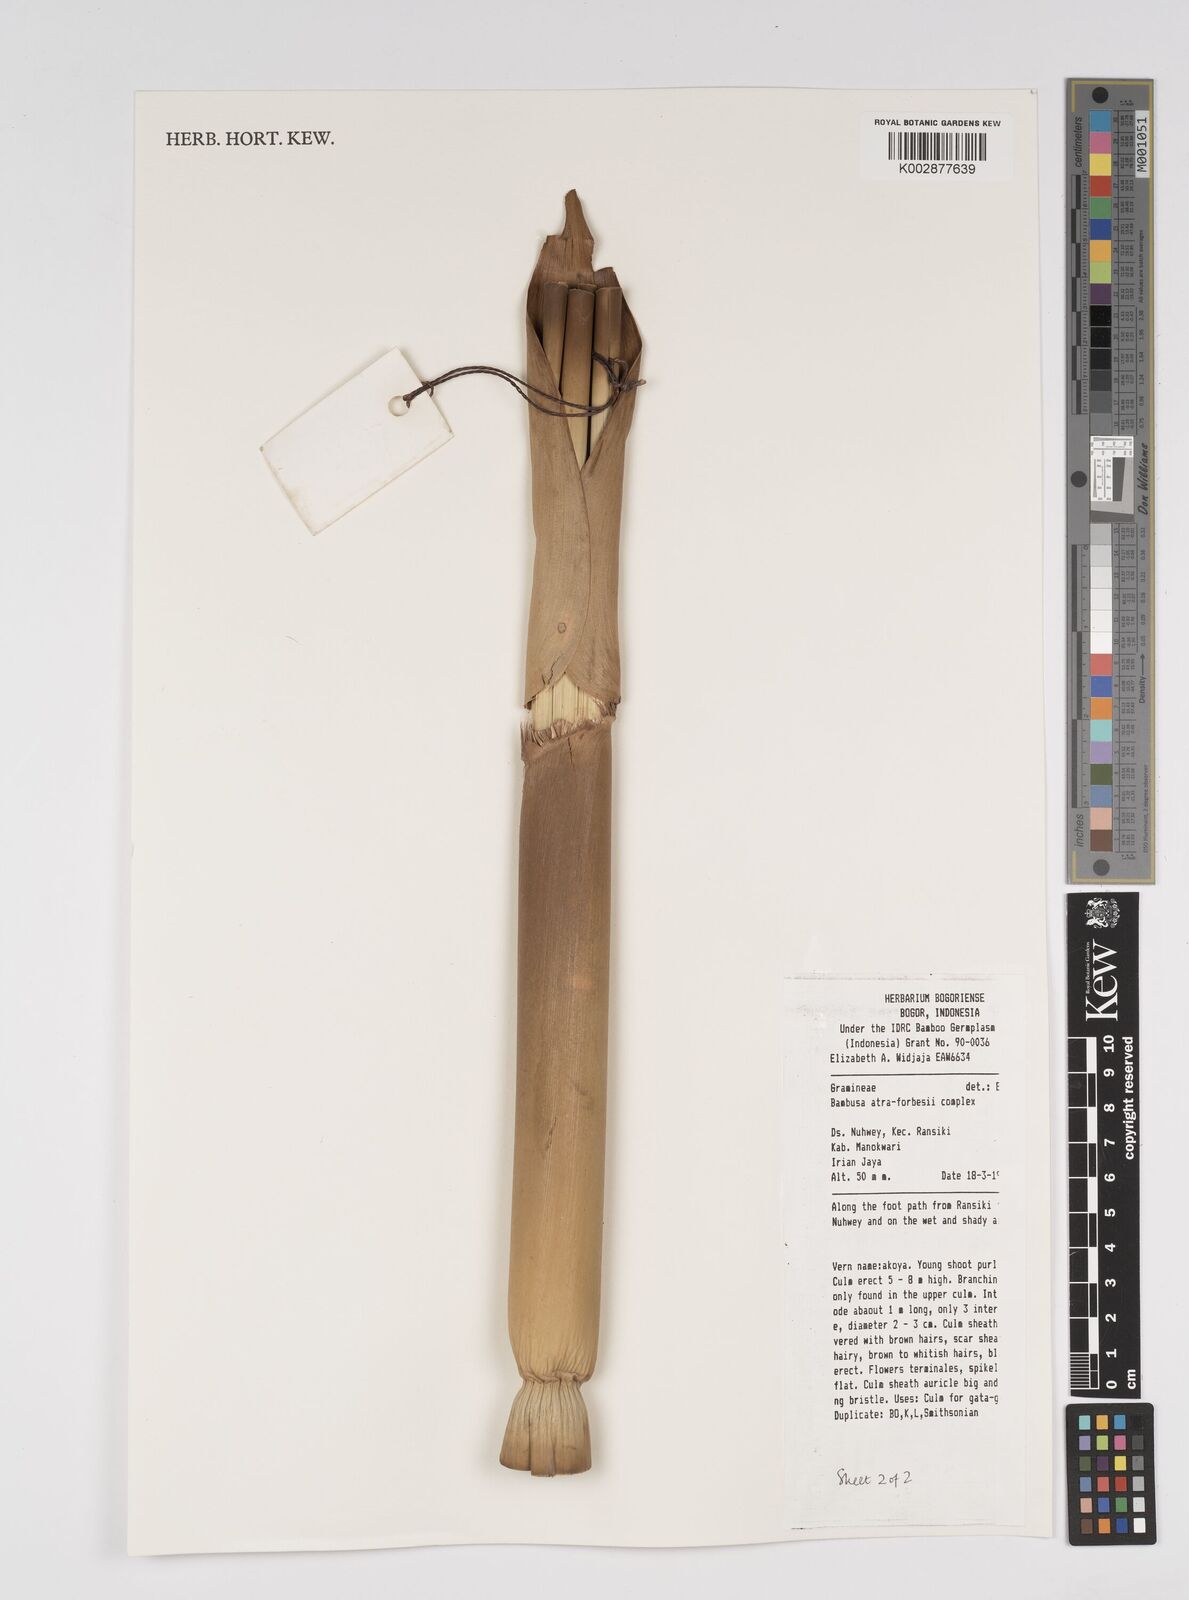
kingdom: Plantae
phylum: Tracheophyta
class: Liliopsida
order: Poales
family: Poaceae
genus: Bambusa
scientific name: Bambusa bambos
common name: Indian thorny bamboo
